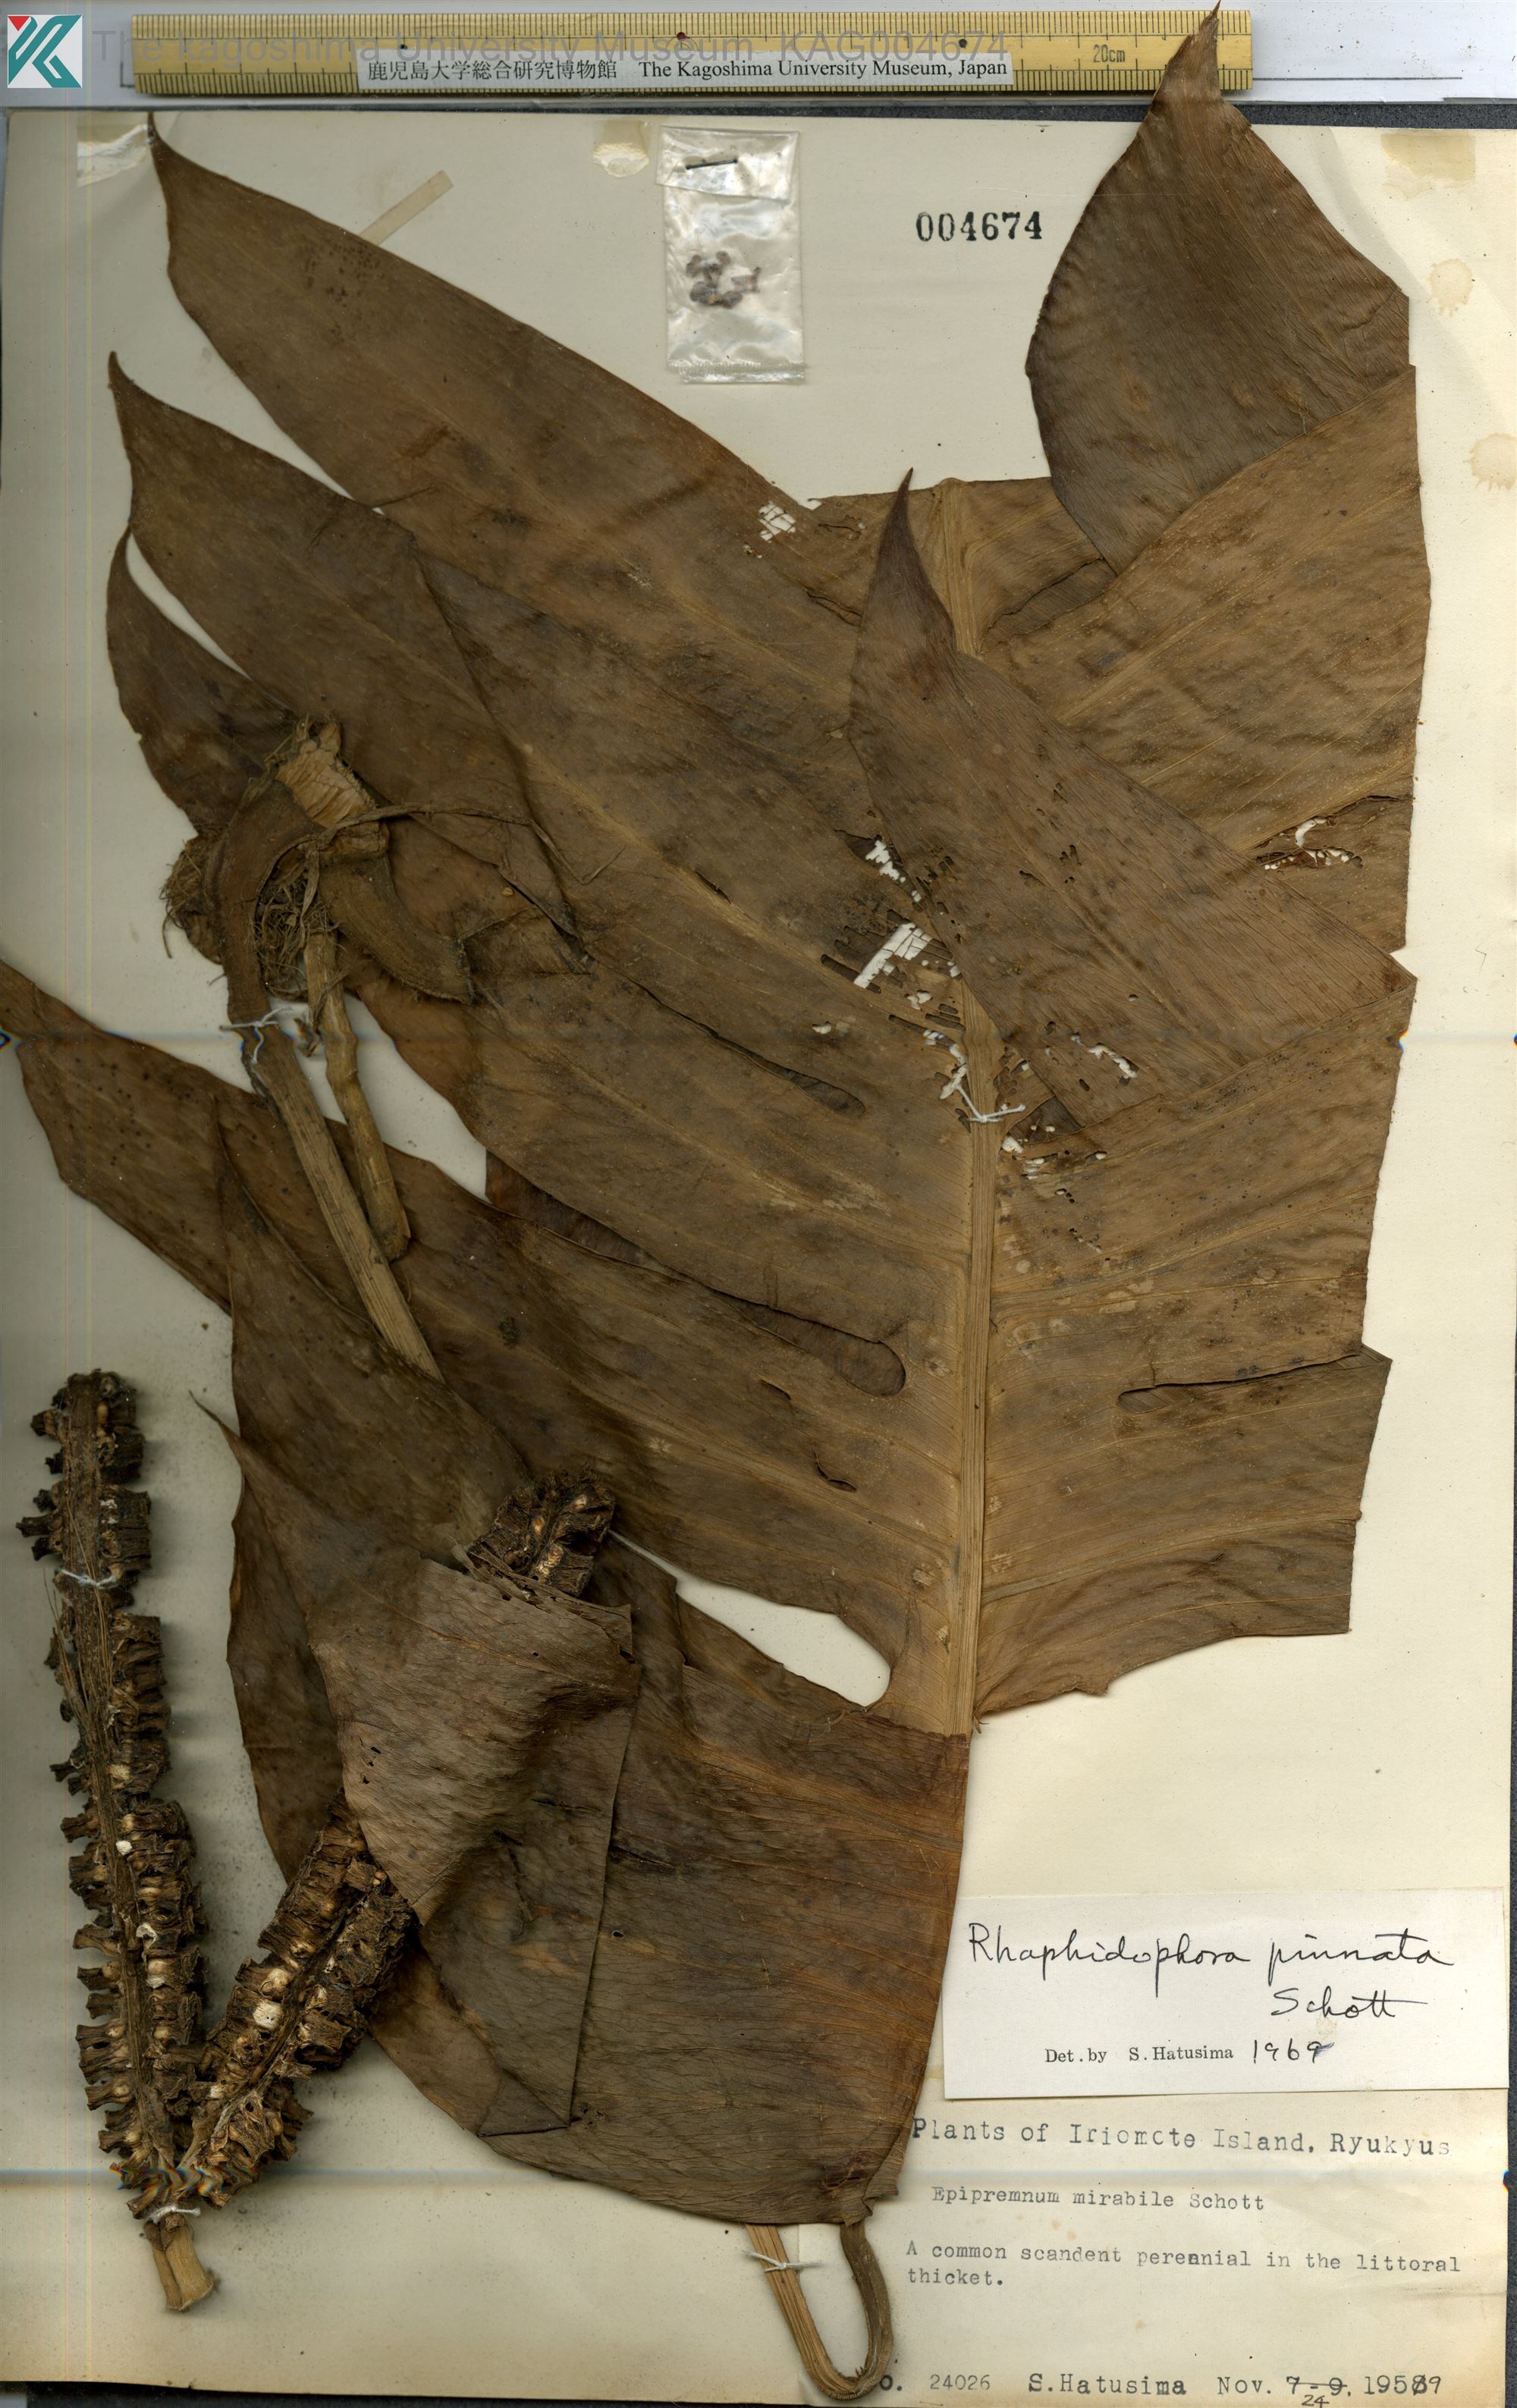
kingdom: Plantae
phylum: Tracheophyta
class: Liliopsida
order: Alismatales
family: Araceae
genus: Epipremnum
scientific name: Epipremnum pinnatum
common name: Centipede tongavine
